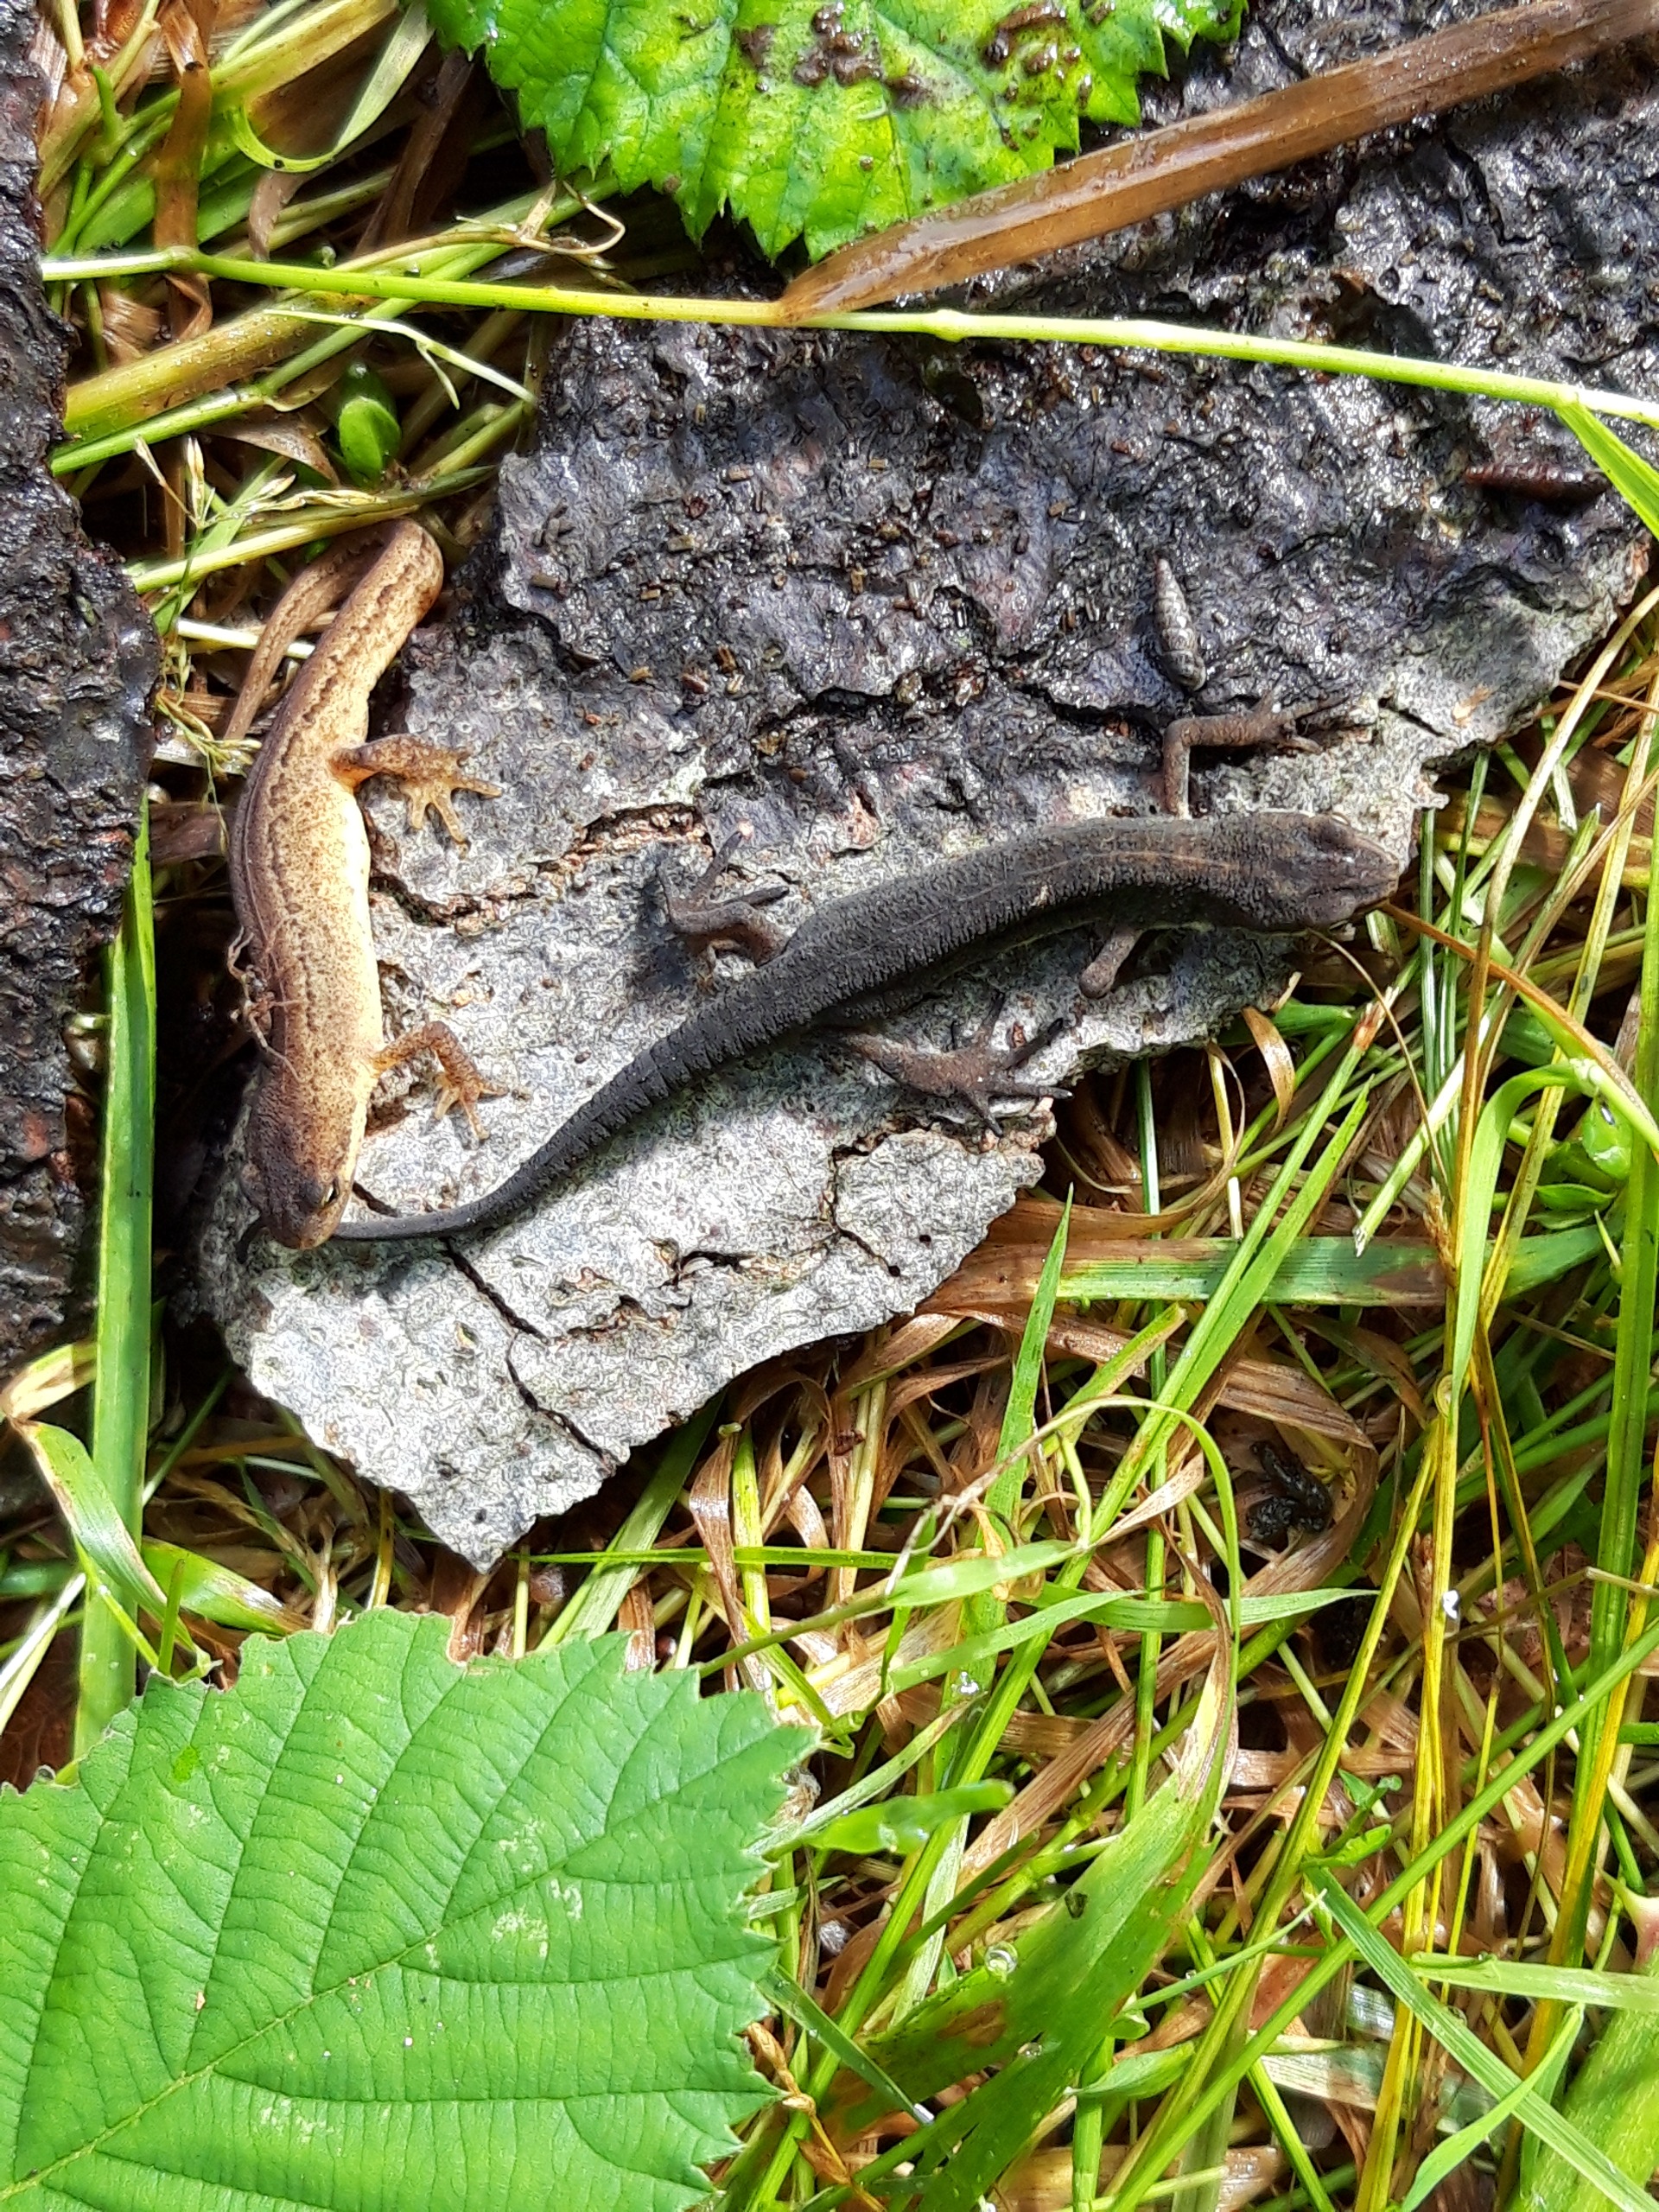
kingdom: Animalia
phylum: Chordata
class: Amphibia
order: Caudata
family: Salamandridae
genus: Lissotriton
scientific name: Lissotriton vulgaris
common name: Lille vandsalamander
